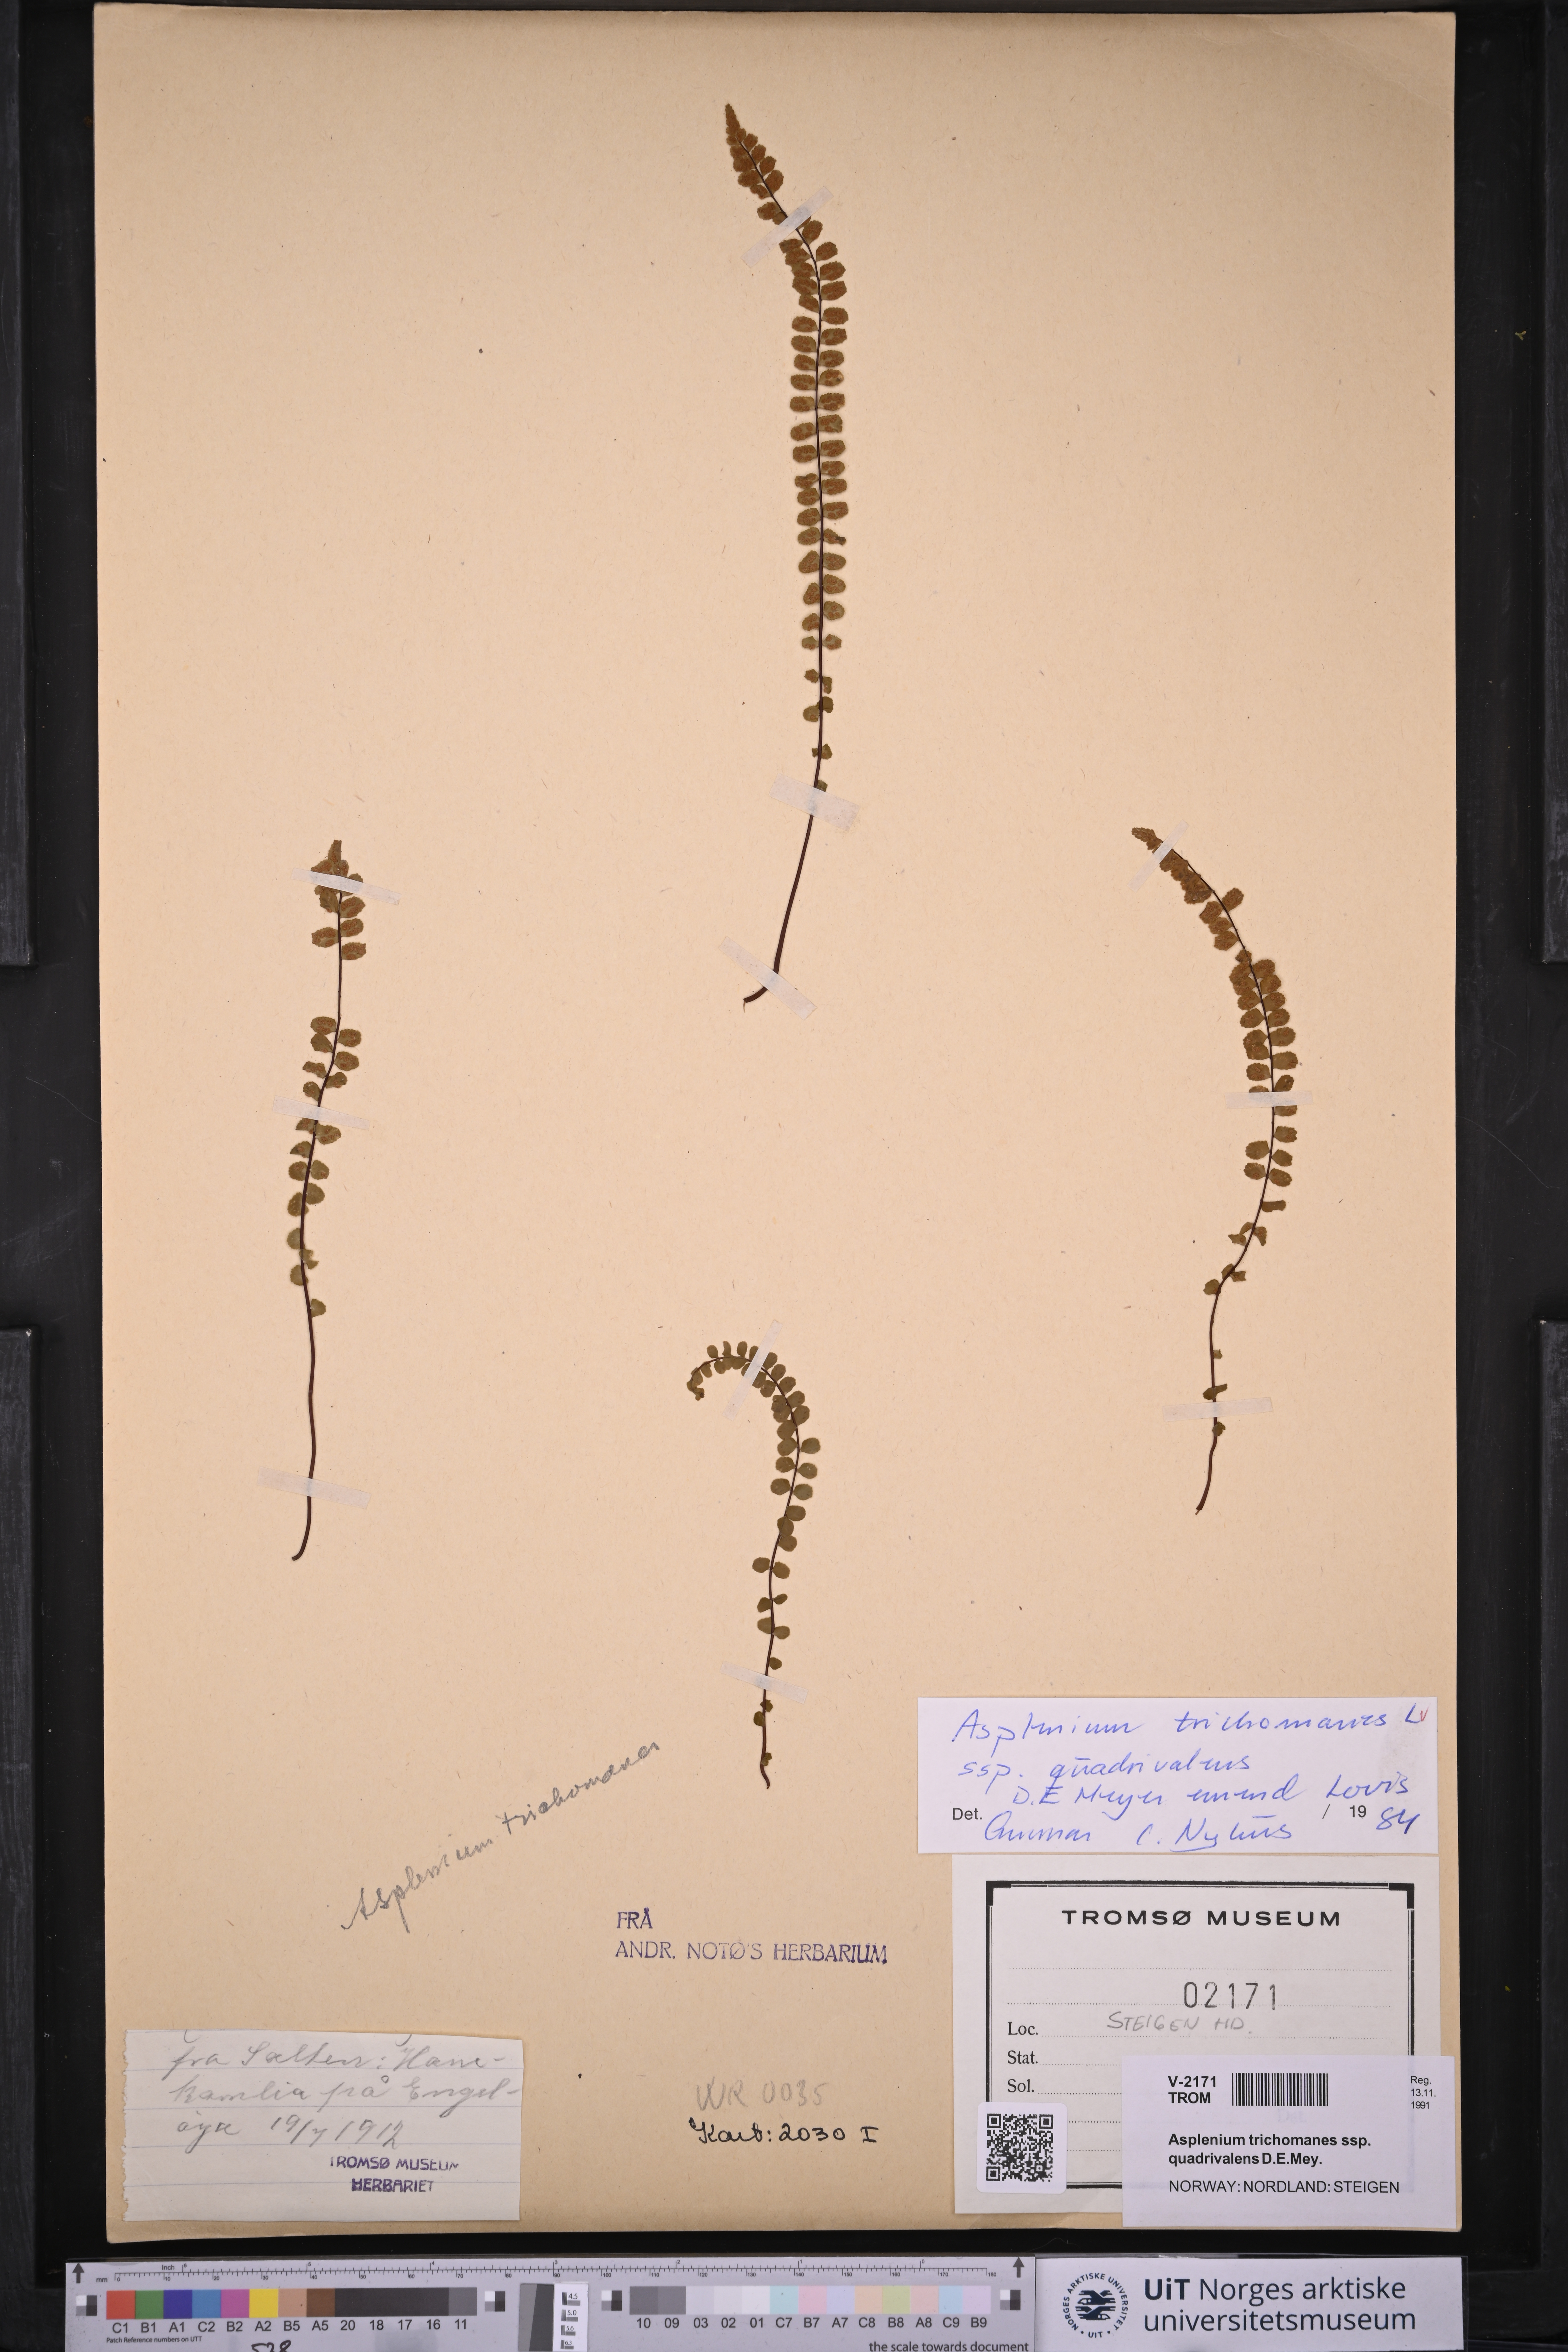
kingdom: Plantae
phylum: Tracheophyta
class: Polypodiopsida
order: Polypodiales
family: Aspleniaceae
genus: Asplenium
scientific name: Asplenium quadrivalens
